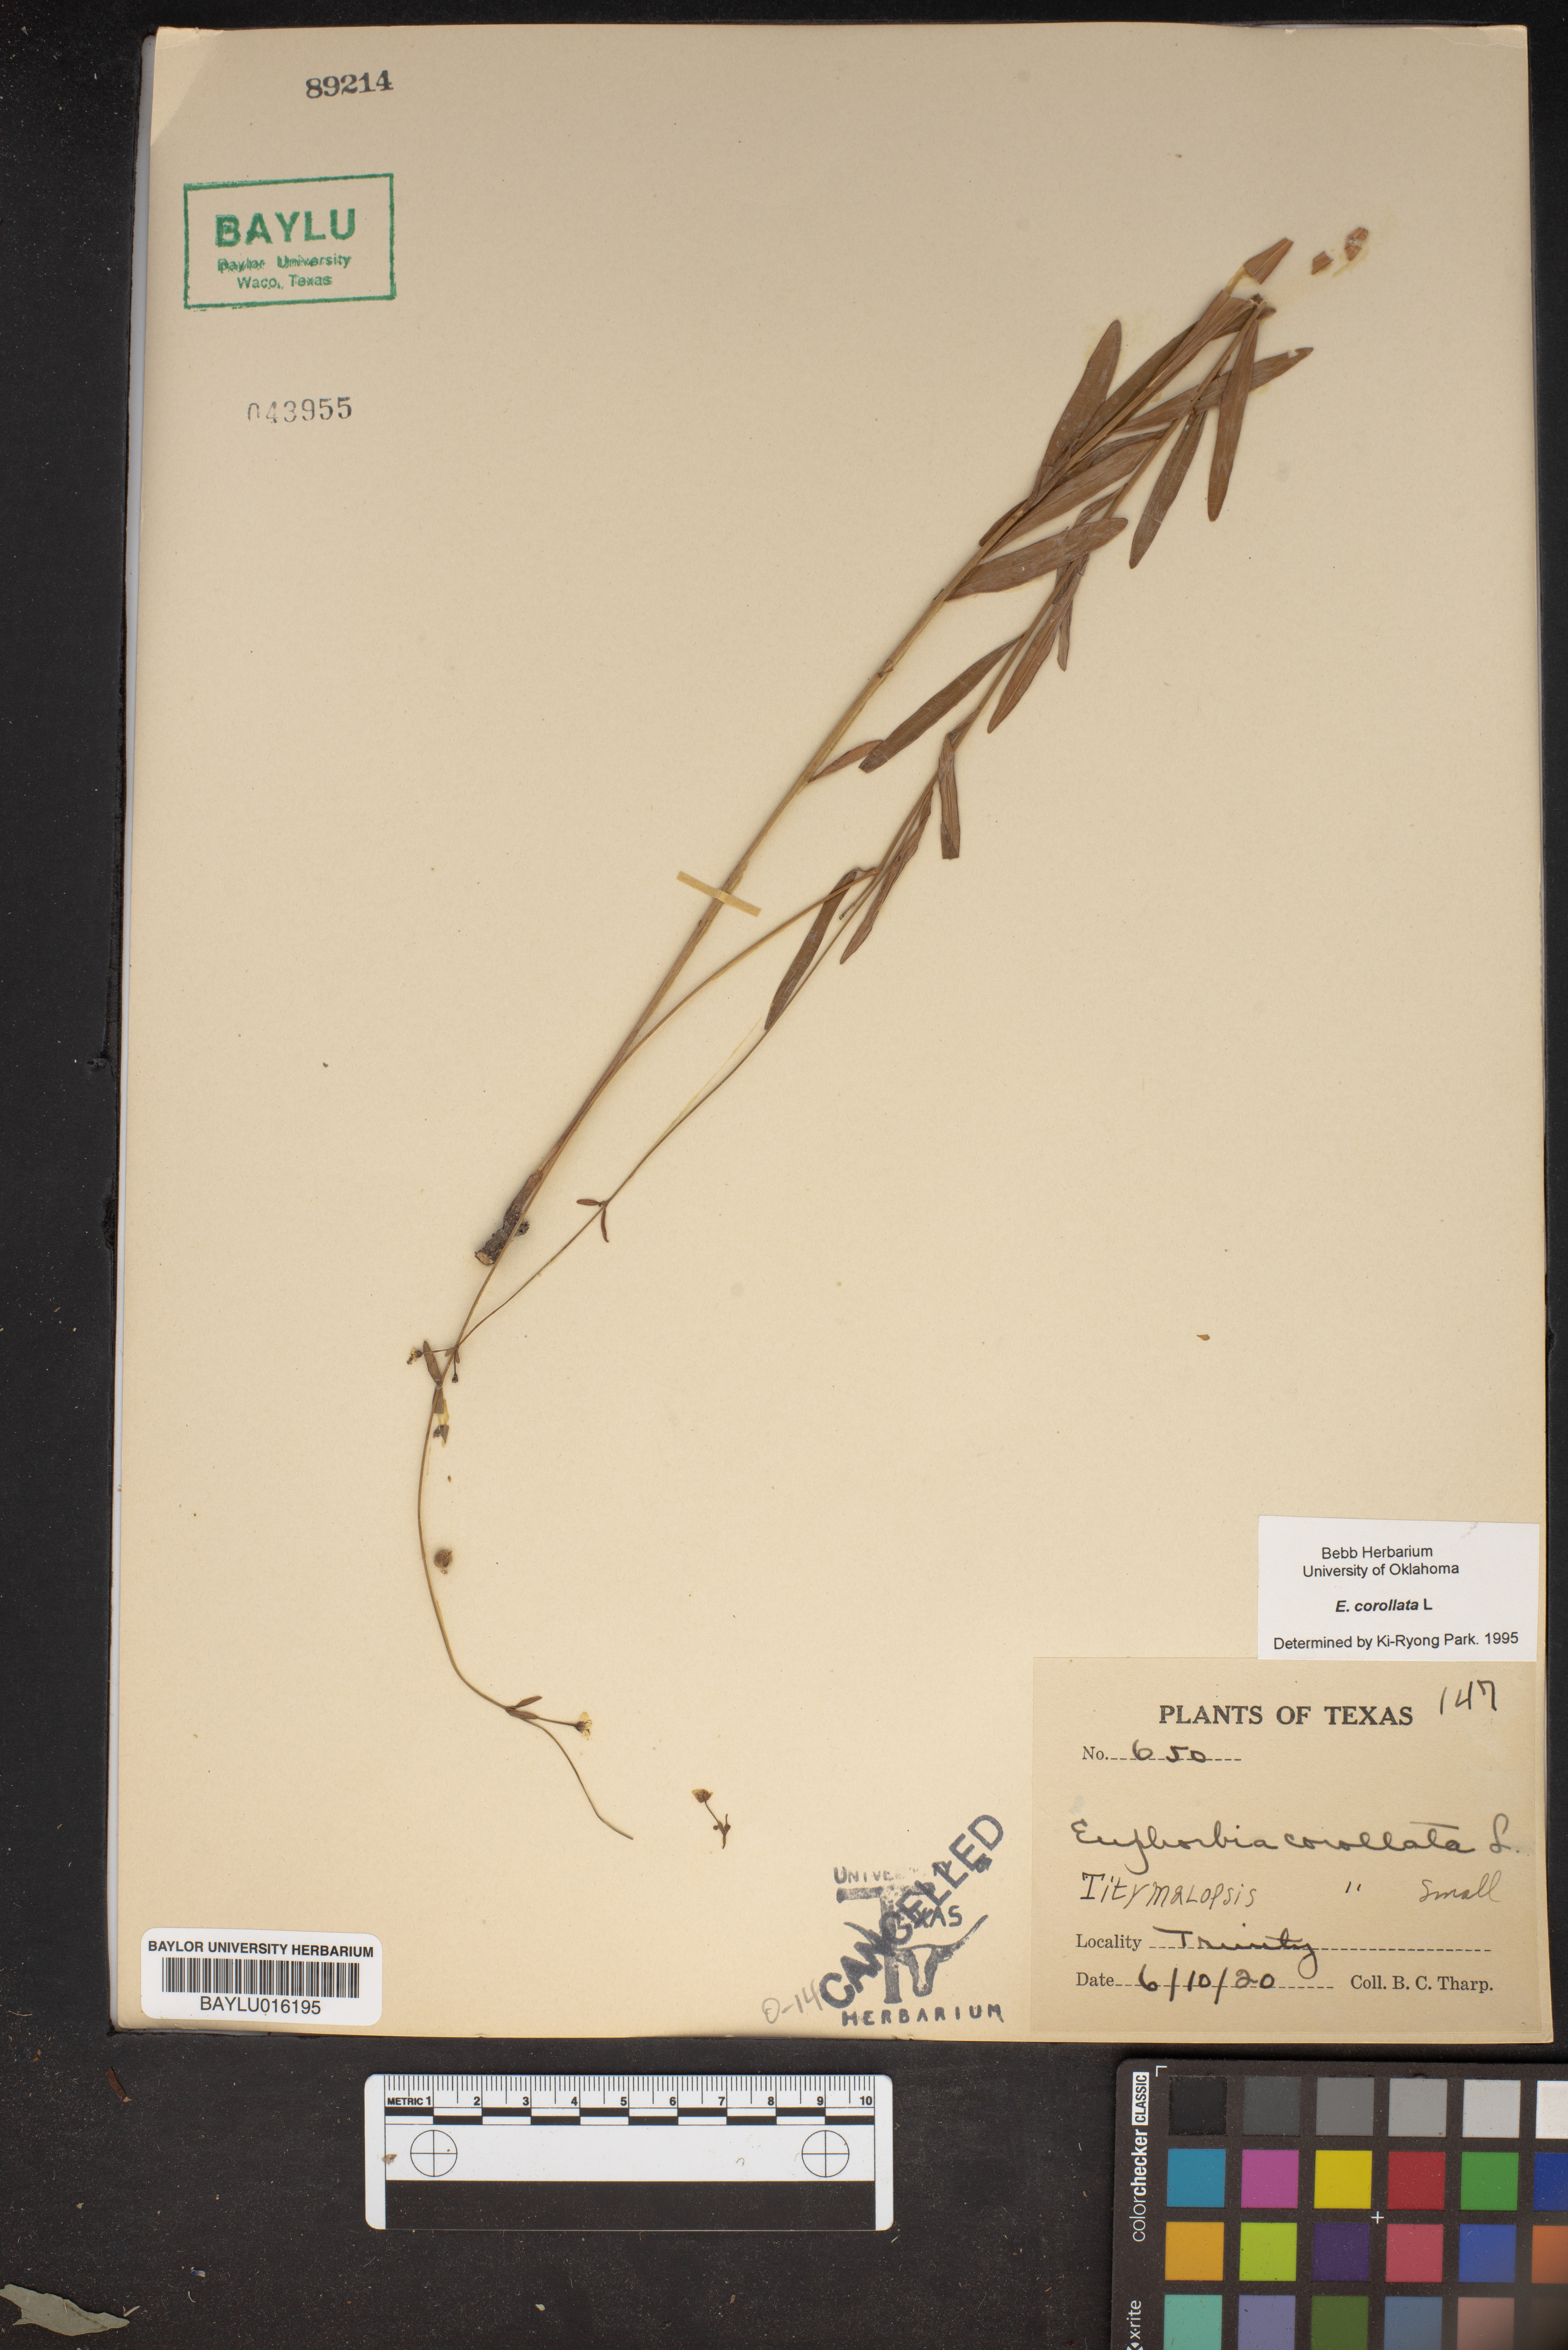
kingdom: Plantae
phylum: Tracheophyta
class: Magnoliopsida
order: Malpighiales
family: Euphorbiaceae
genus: Euphorbia
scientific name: Euphorbia corollata
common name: Flowering spurge
